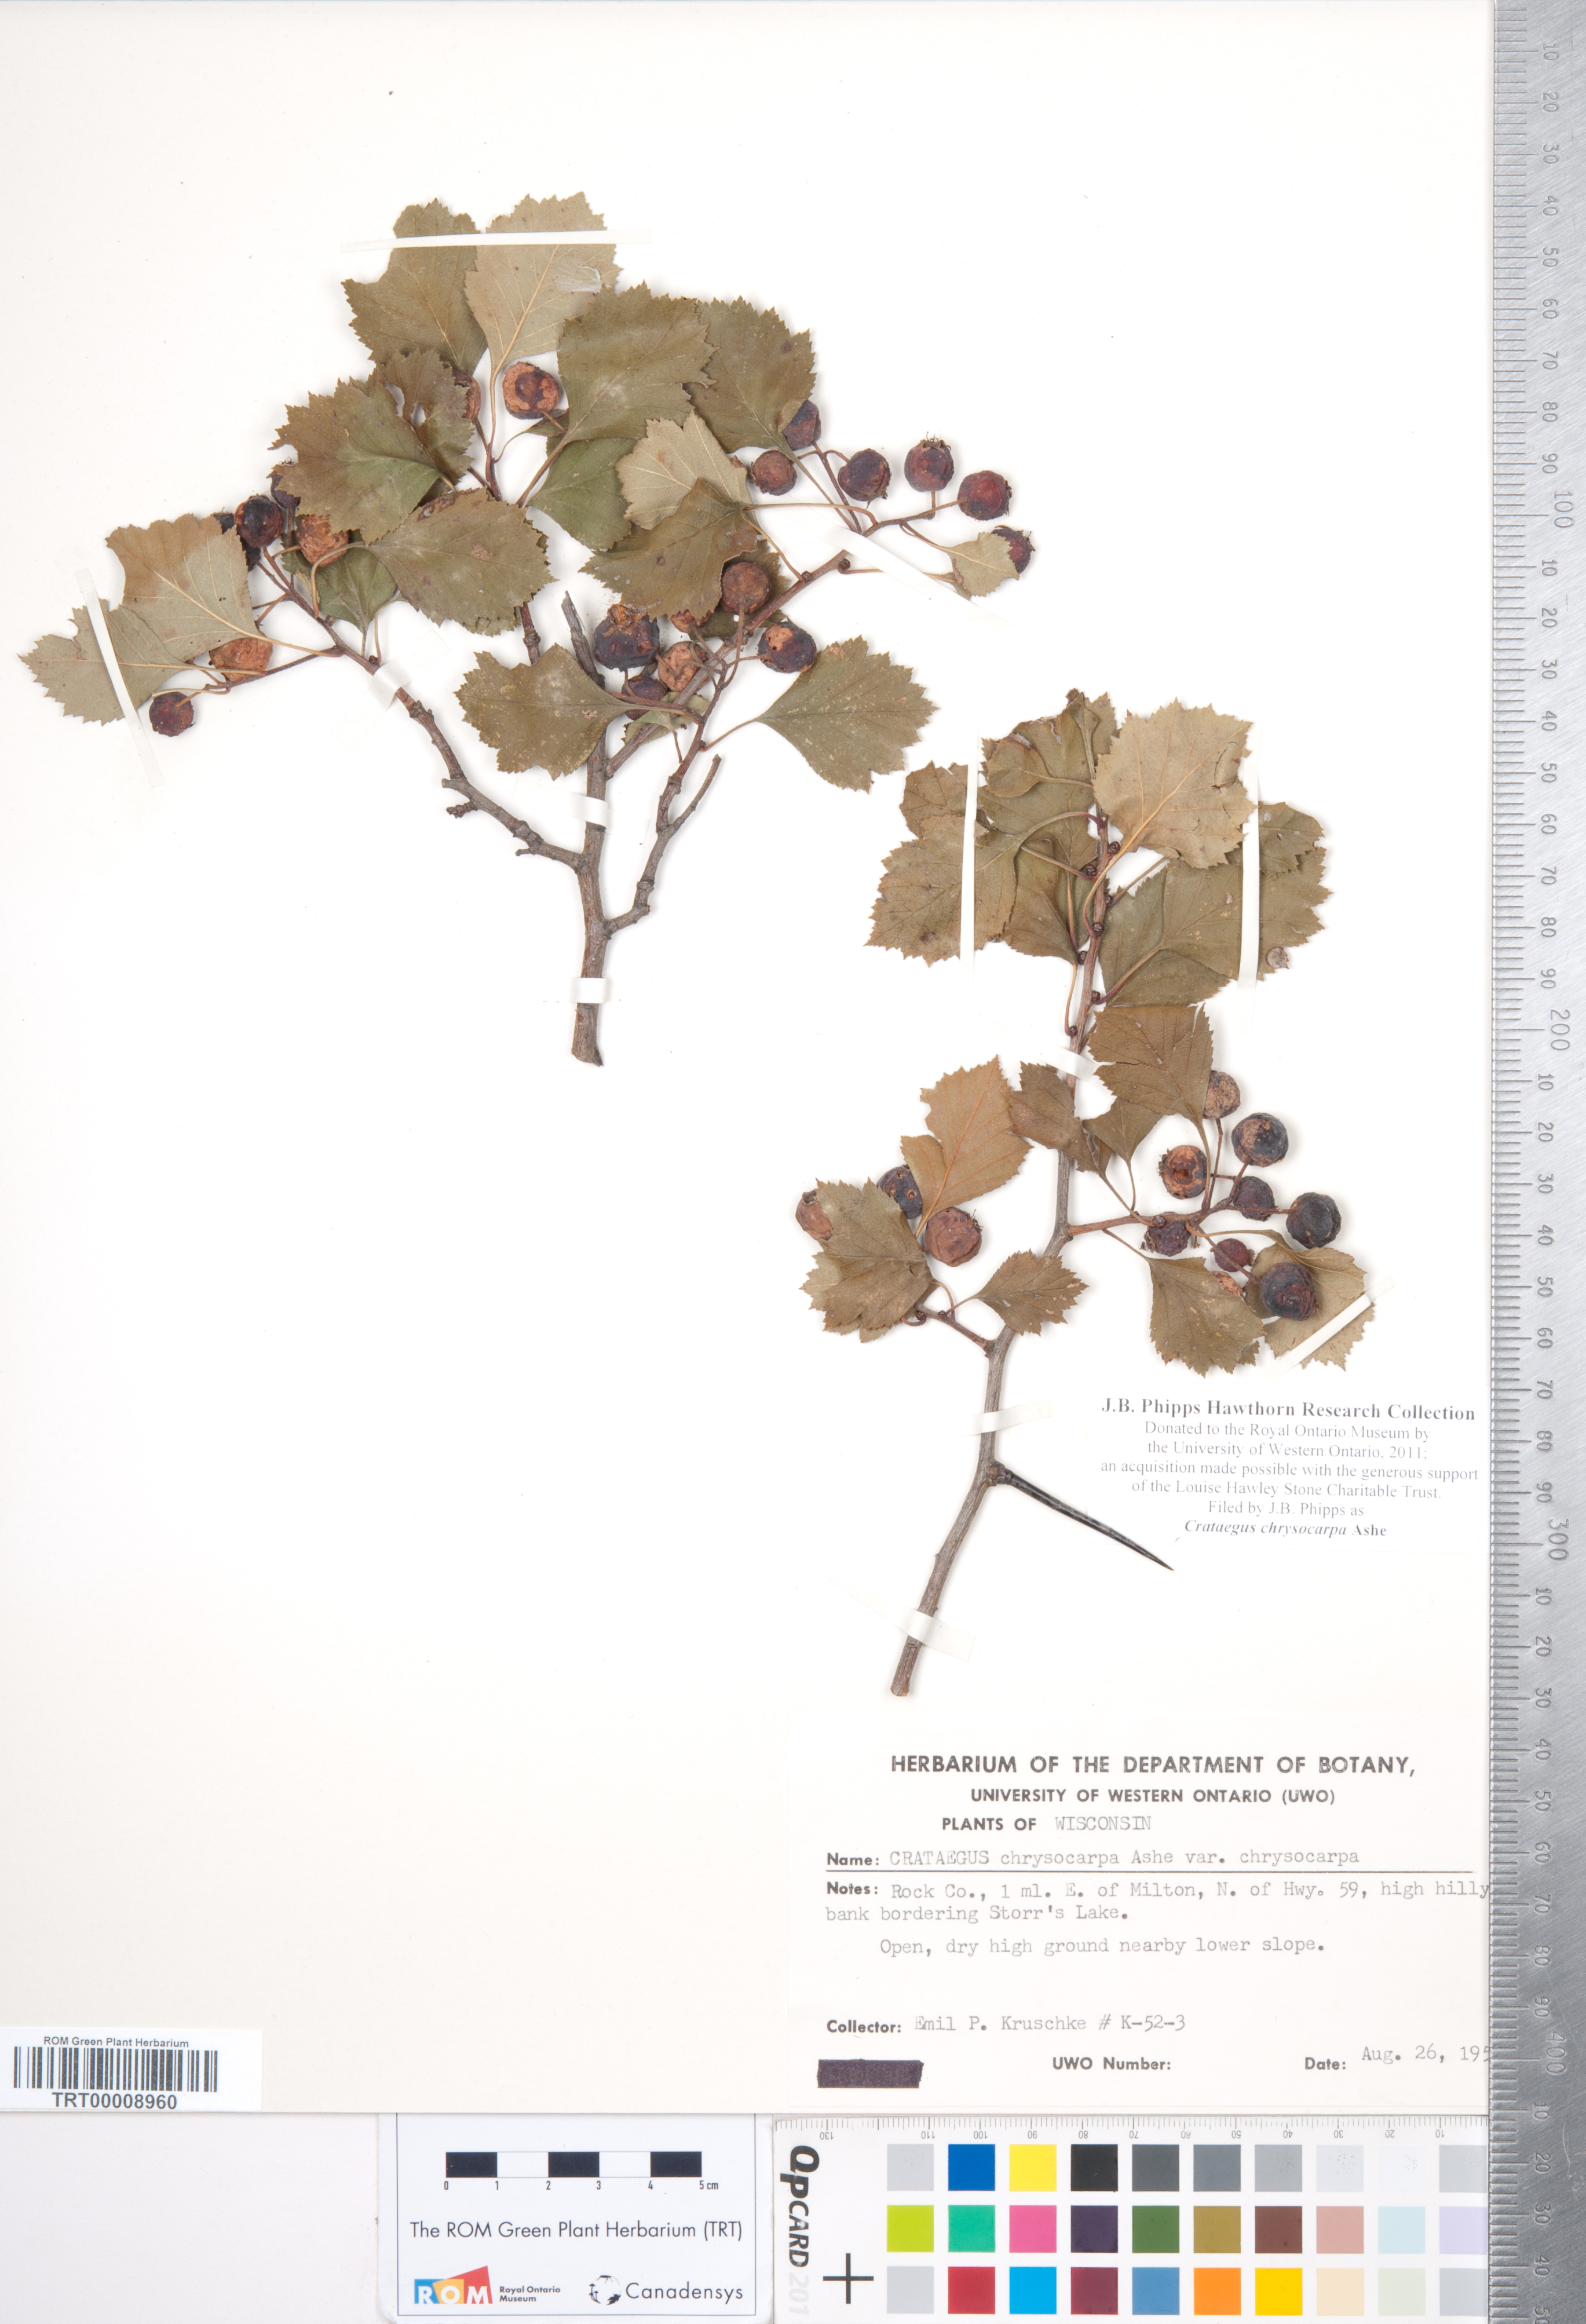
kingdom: Plantae
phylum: Tracheophyta
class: Magnoliopsida
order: Rosales
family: Rosaceae
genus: Crataegus
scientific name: Crataegus chrysocarpa
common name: Fire-berry hawthorn
